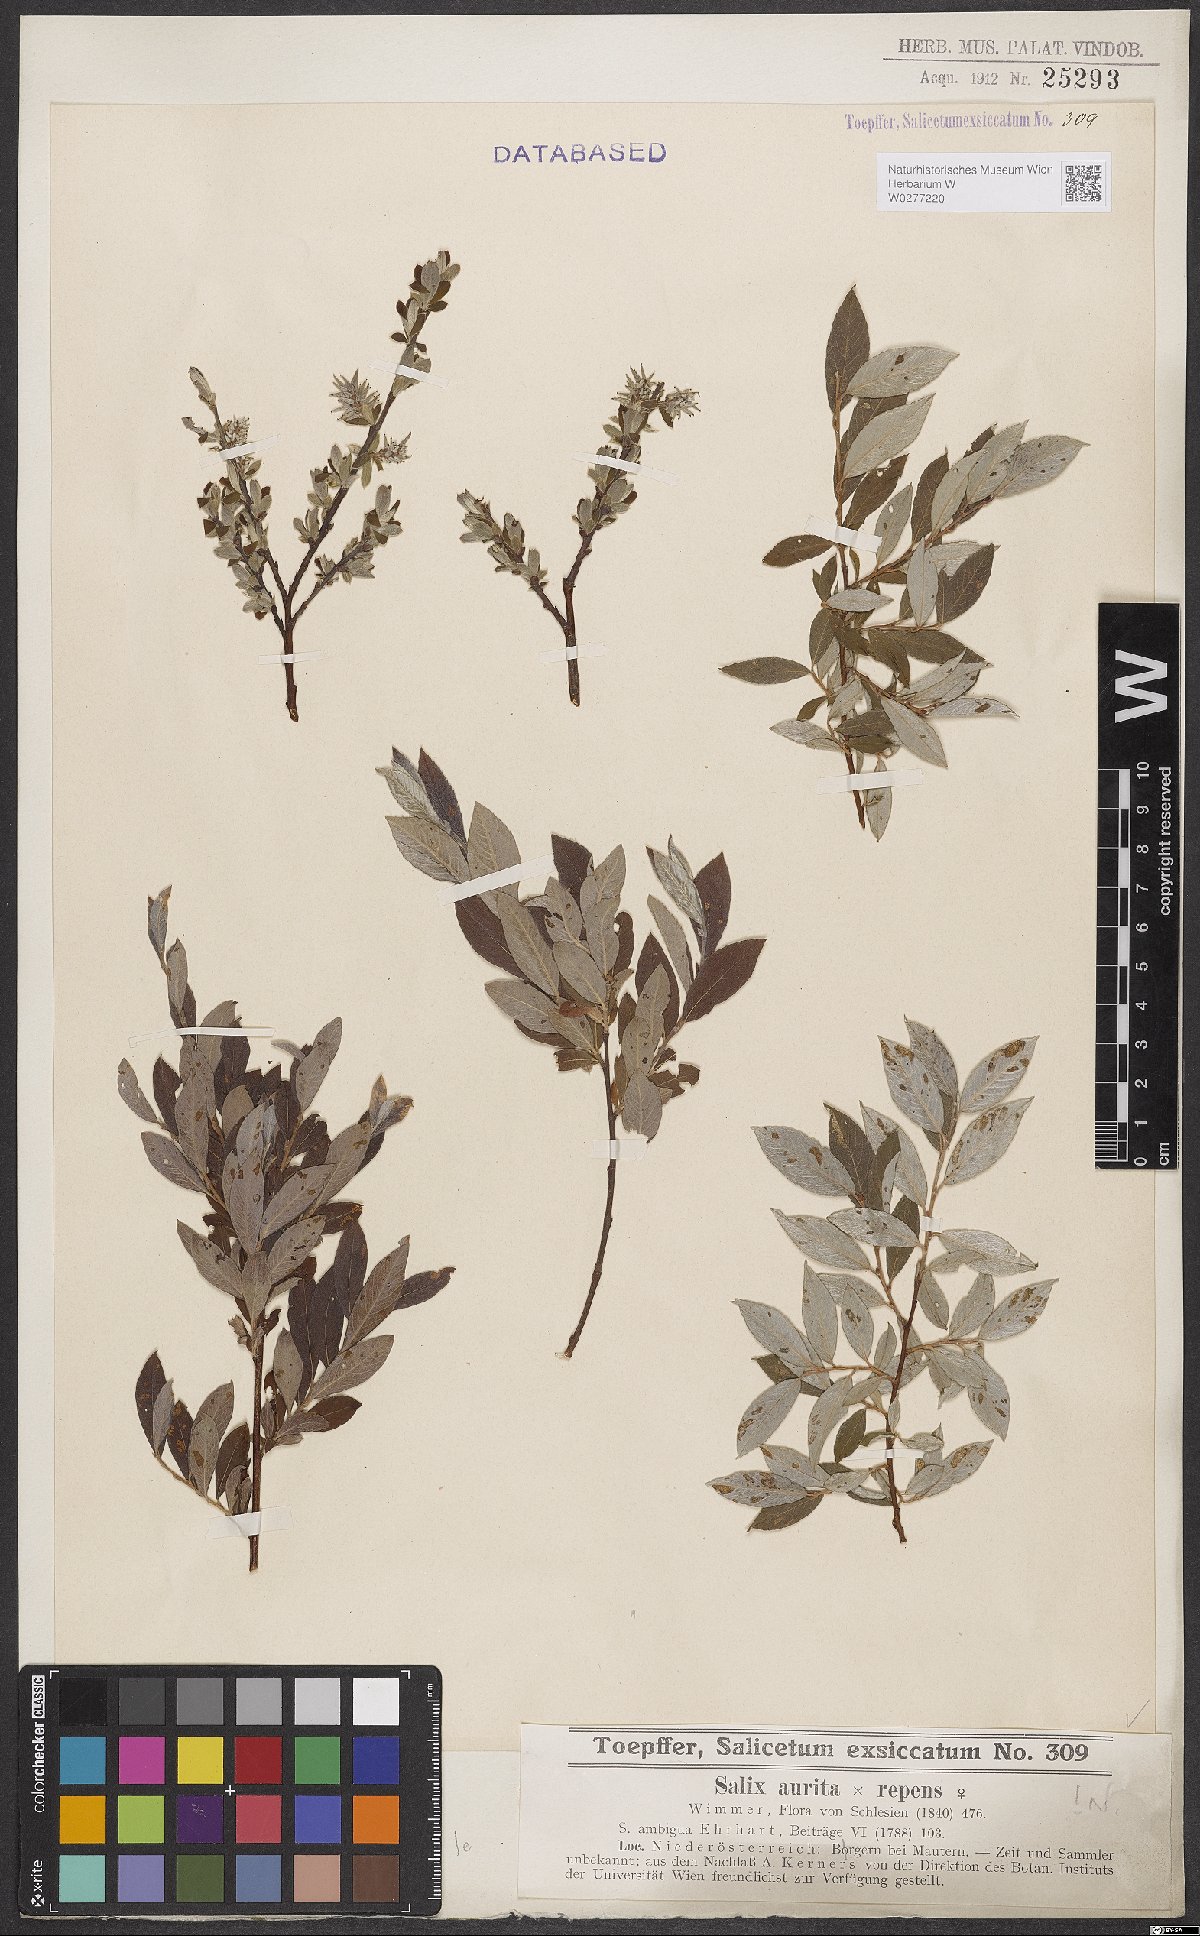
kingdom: Plantae
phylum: Tracheophyta
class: Magnoliopsida
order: Malpighiales
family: Salicaceae
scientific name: Salicaceae
